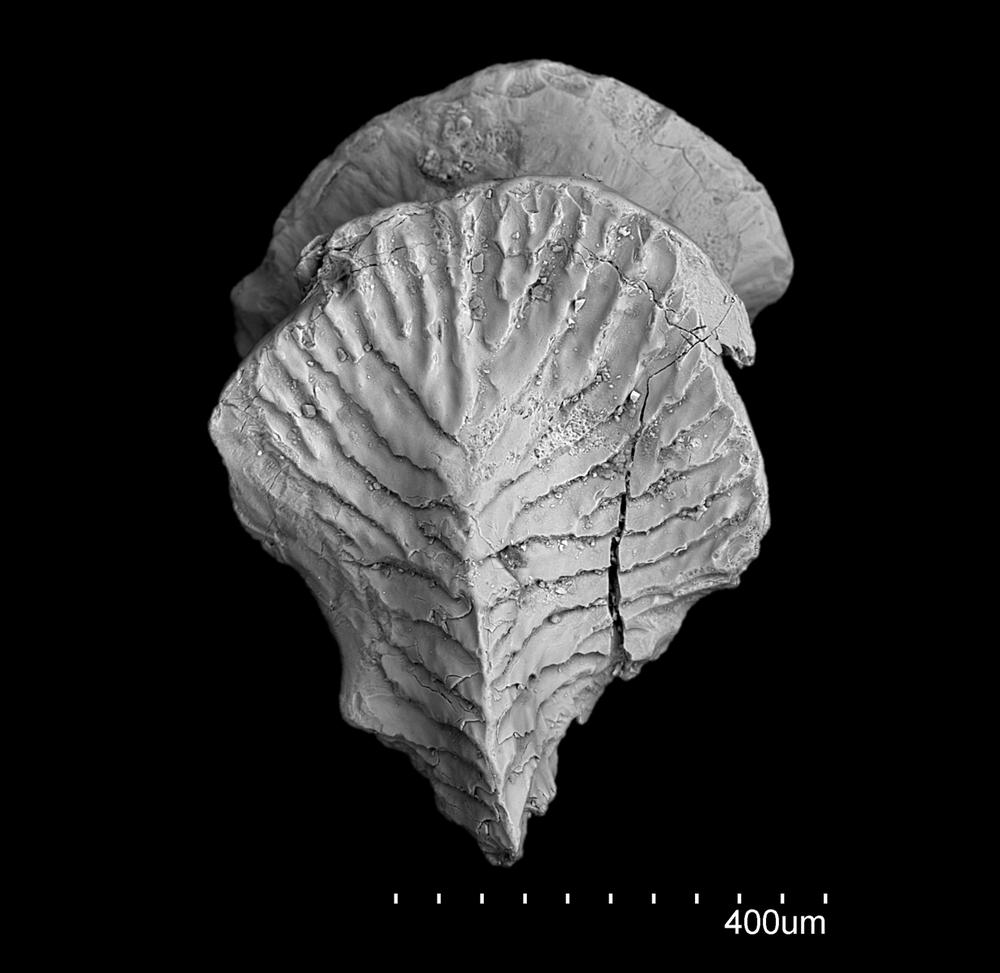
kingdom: Animalia
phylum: Chordata
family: Diplacanthidae
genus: Diplacanthus
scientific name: Diplacanthus crassisimus
